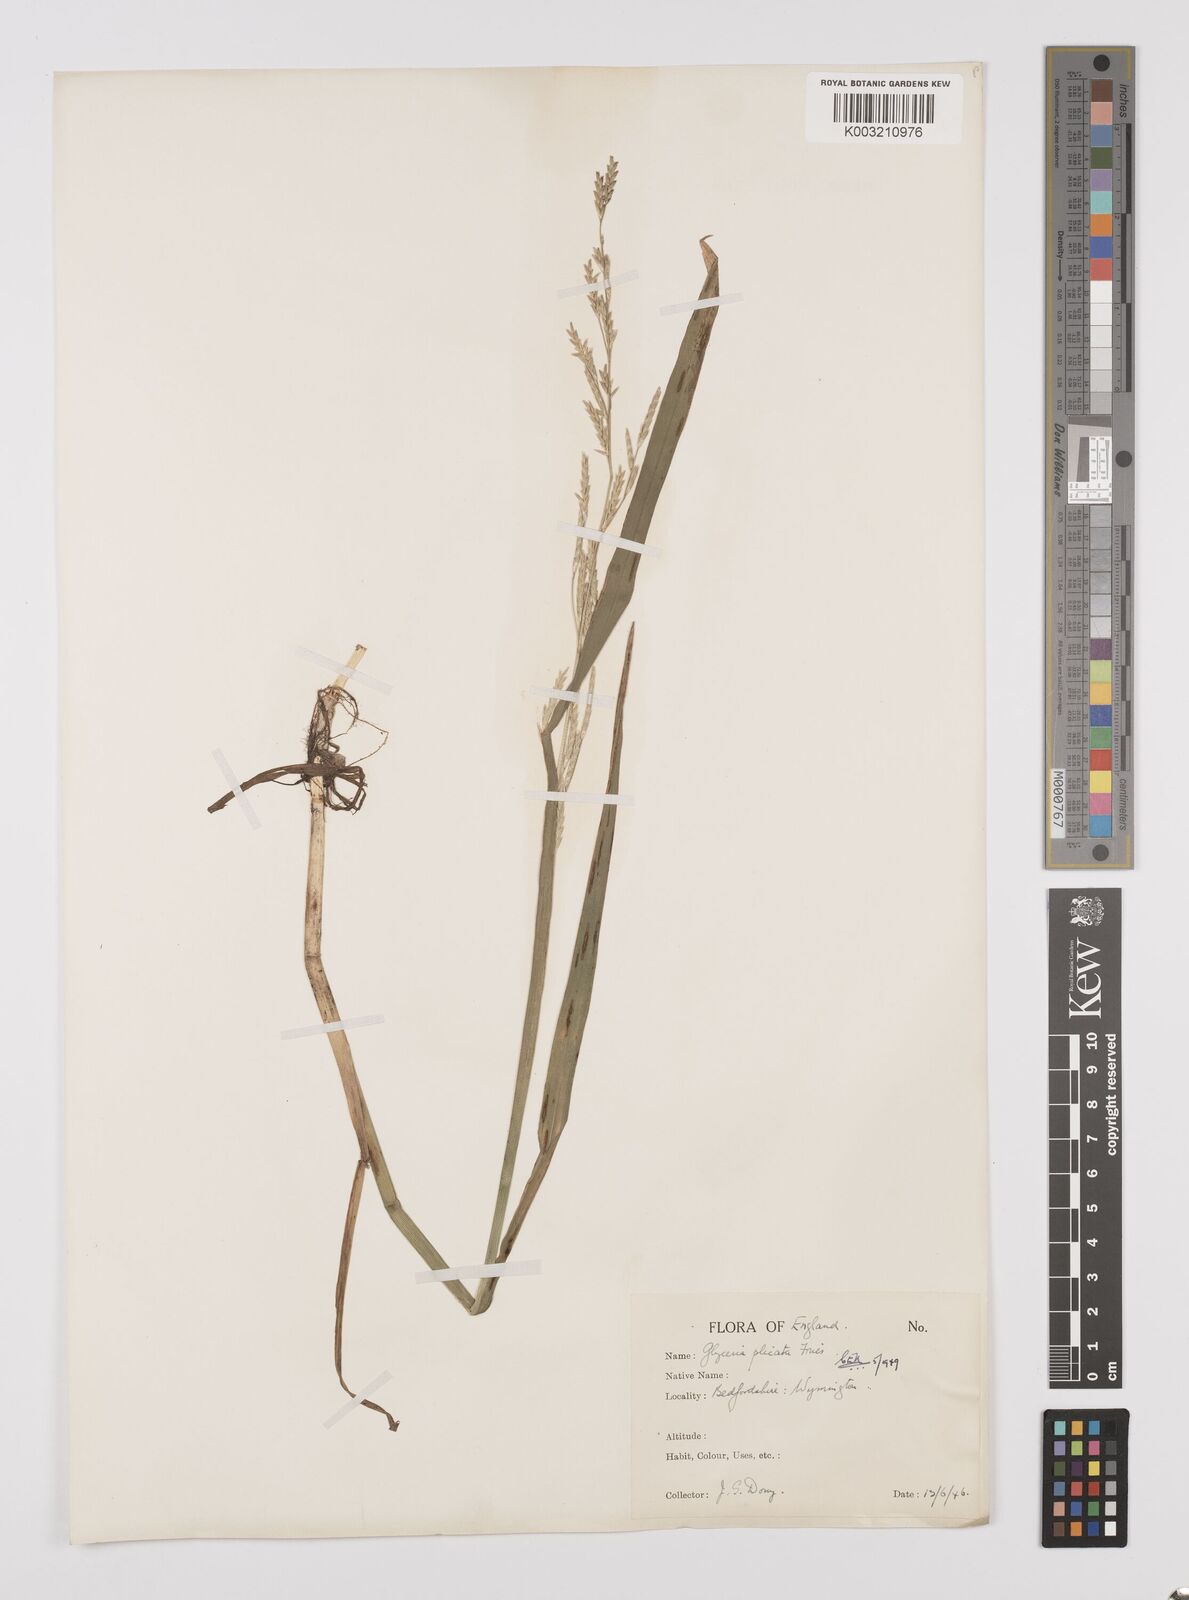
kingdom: Plantae
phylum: Tracheophyta
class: Liliopsida
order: Poales
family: Poaceae
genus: Glyceria
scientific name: Glyceria notata
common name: Plicate sweet-grass
